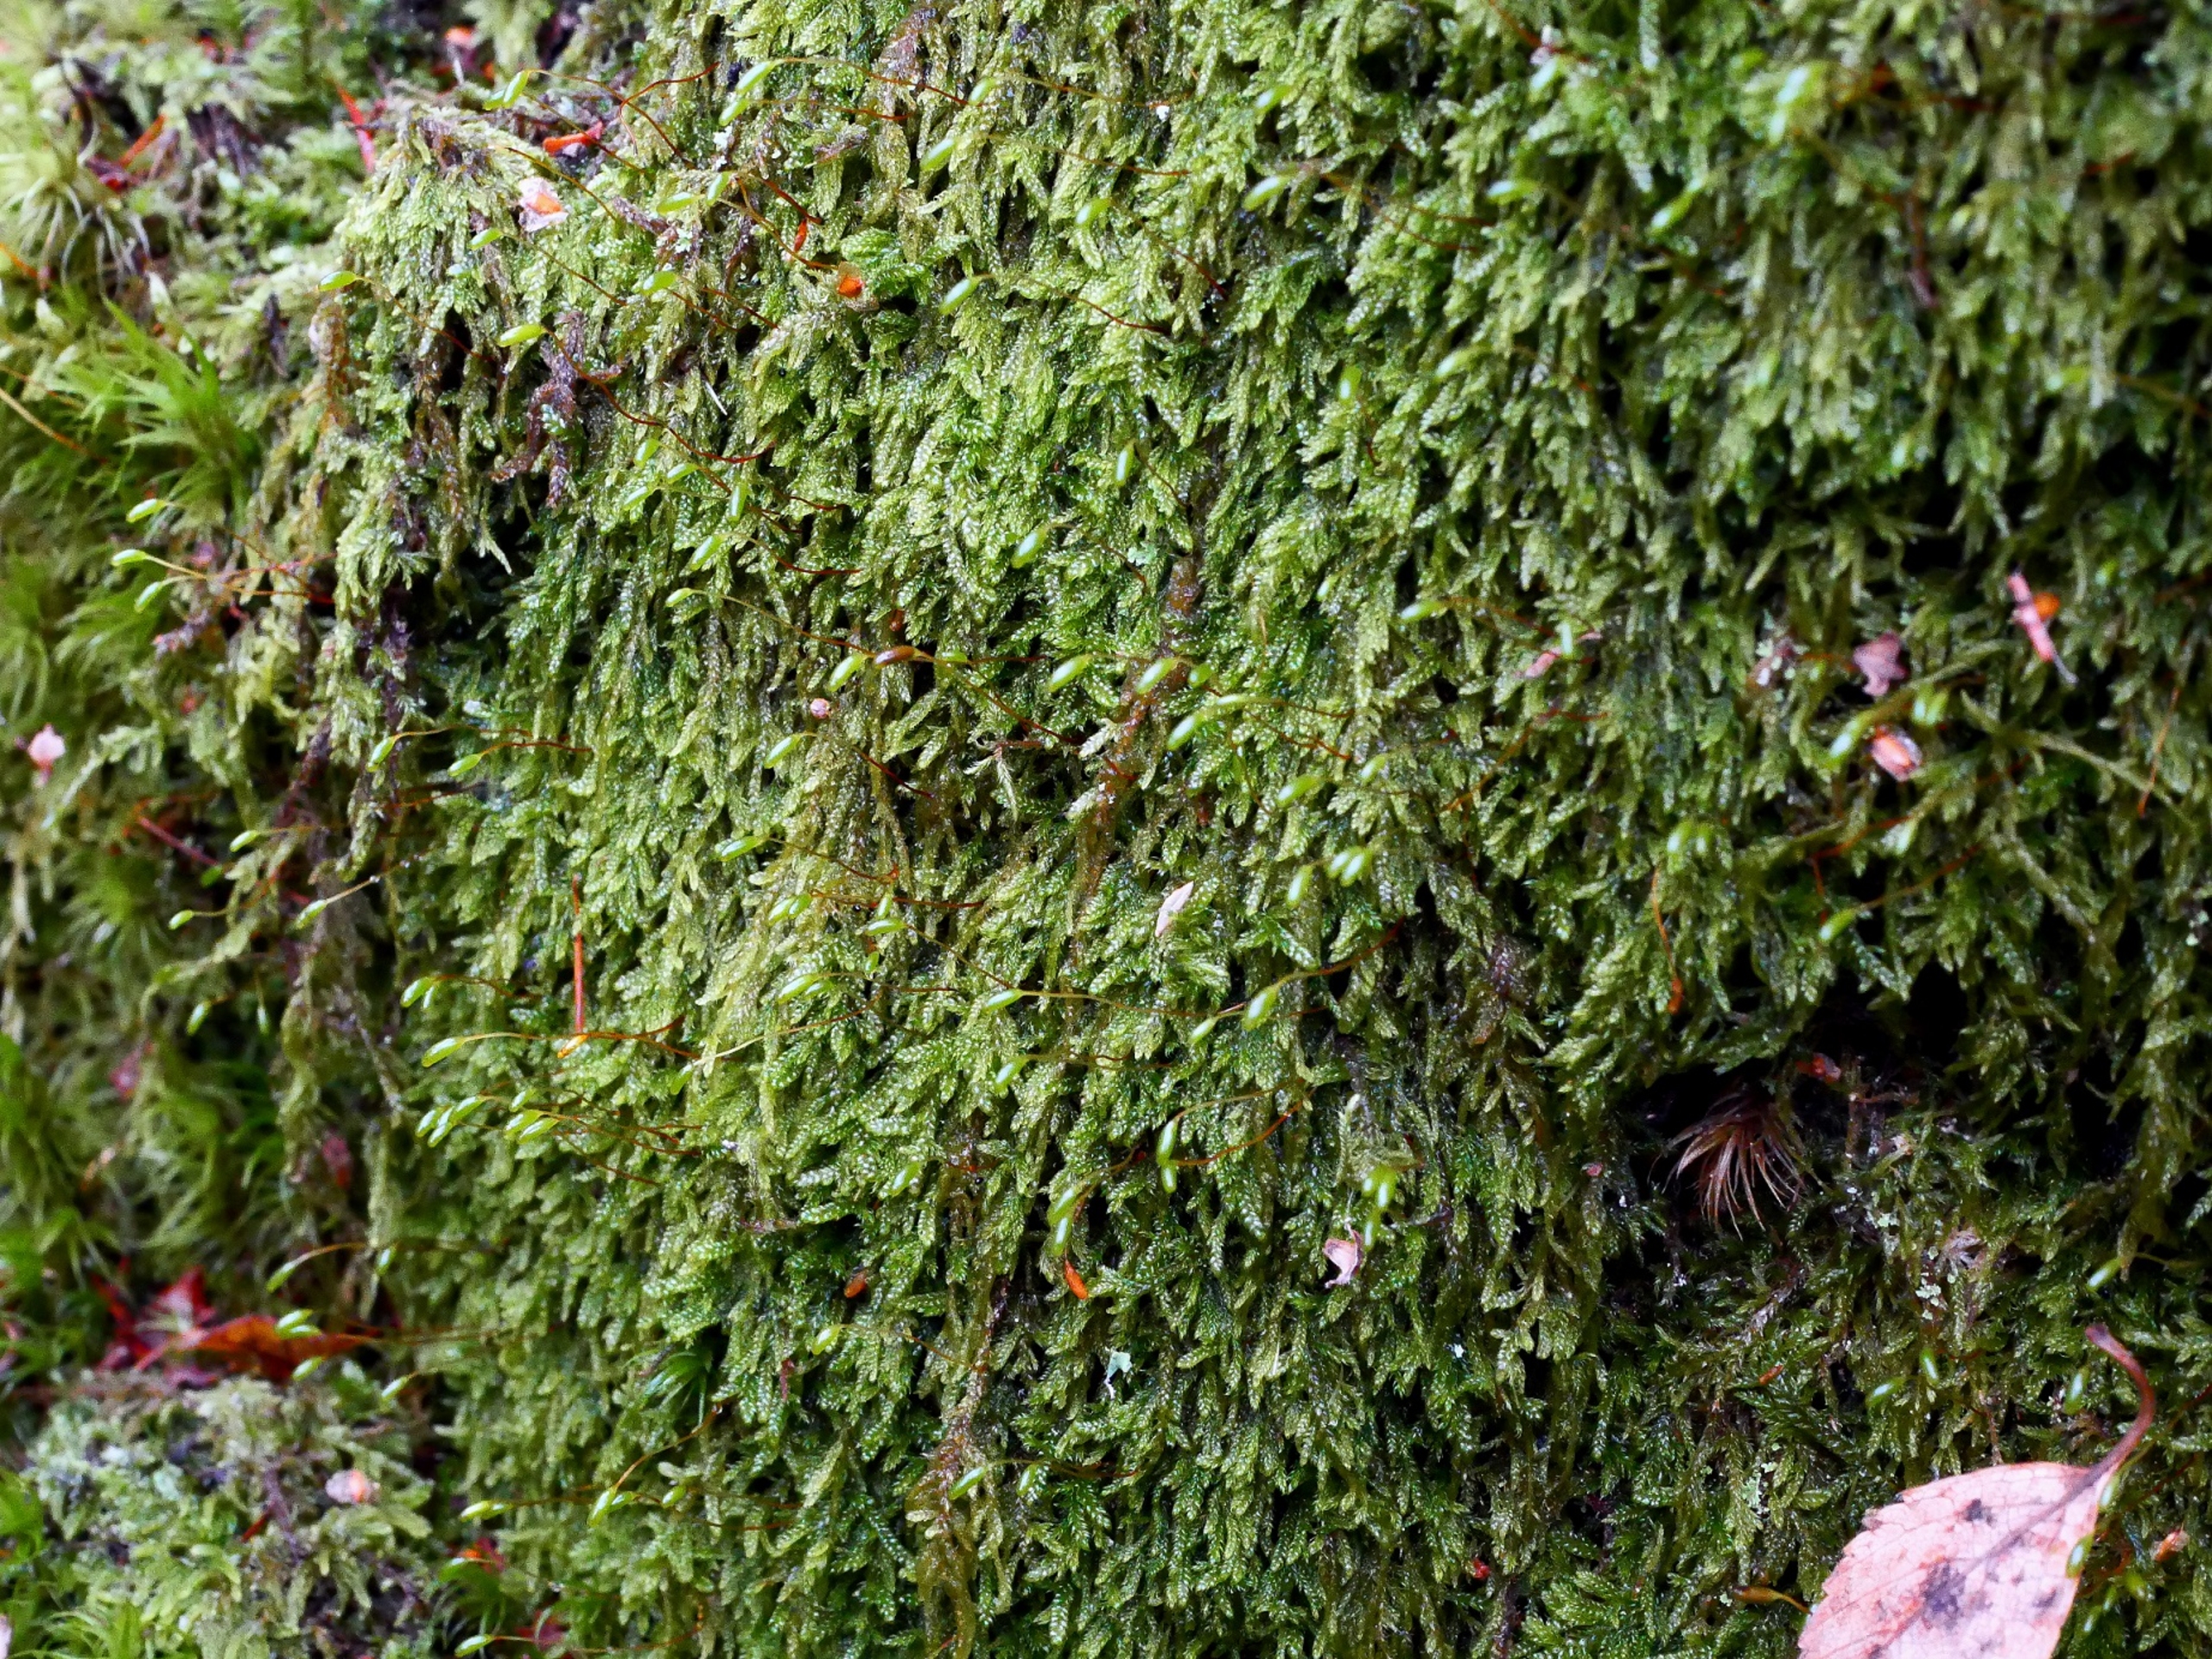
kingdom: Plantae
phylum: Bryophyta
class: Bryopsida
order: Hypnales
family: Hypnaceae
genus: Hypnum
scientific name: Hypnum andoi
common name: Vortet cypresmos
